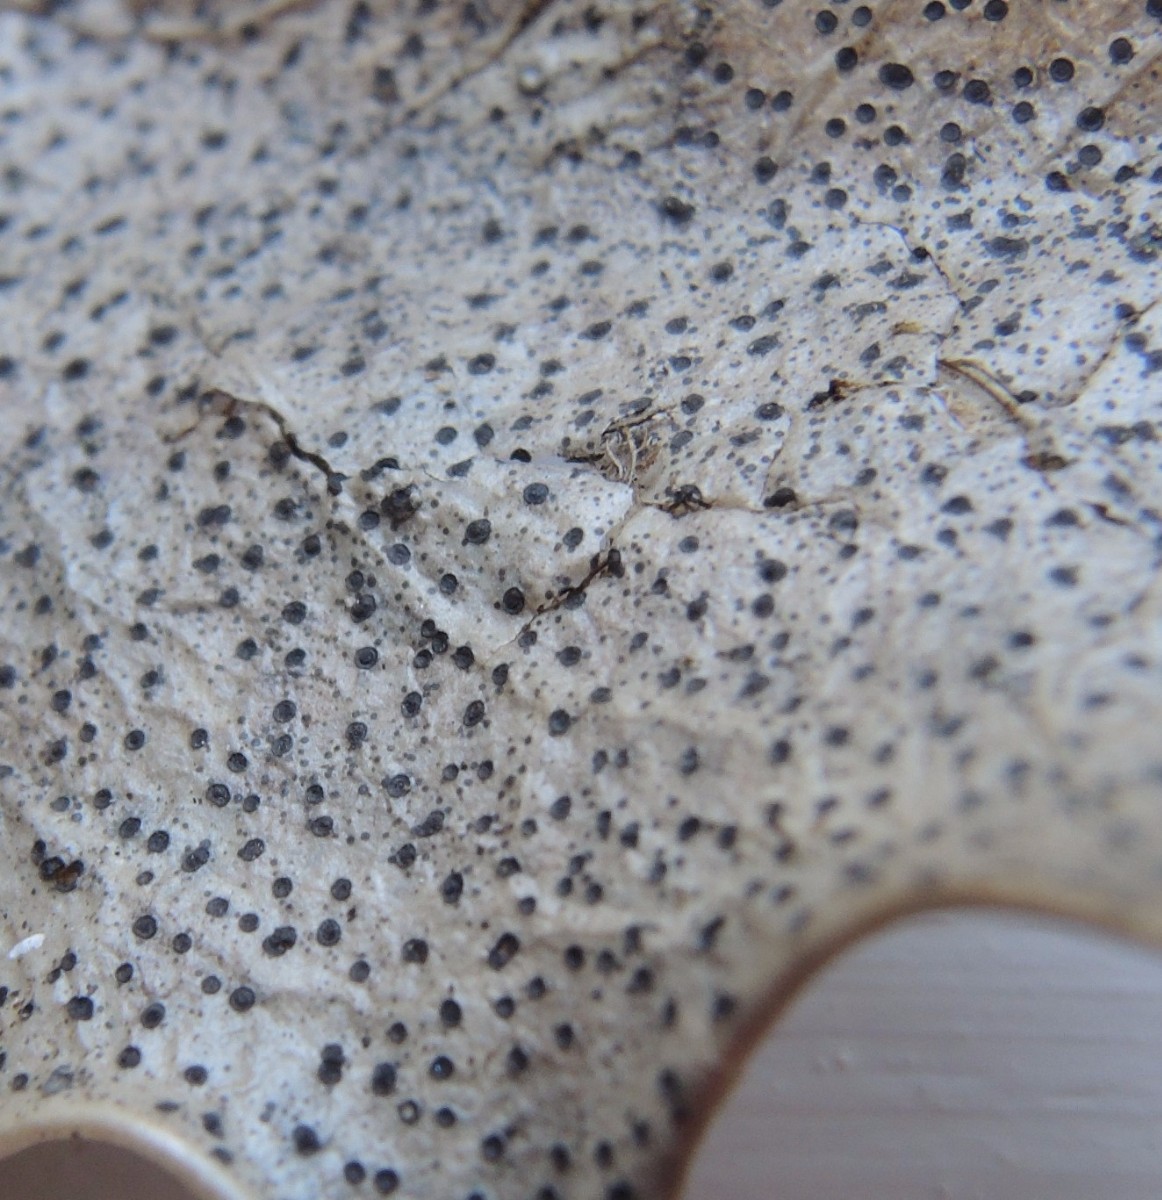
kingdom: Fungi
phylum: Ascomycota
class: Leotiomycetes
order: Helotiales
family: Cenangiaceae
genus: Trochila
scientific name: Trochila ilicina
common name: kristtorn-lågskive
